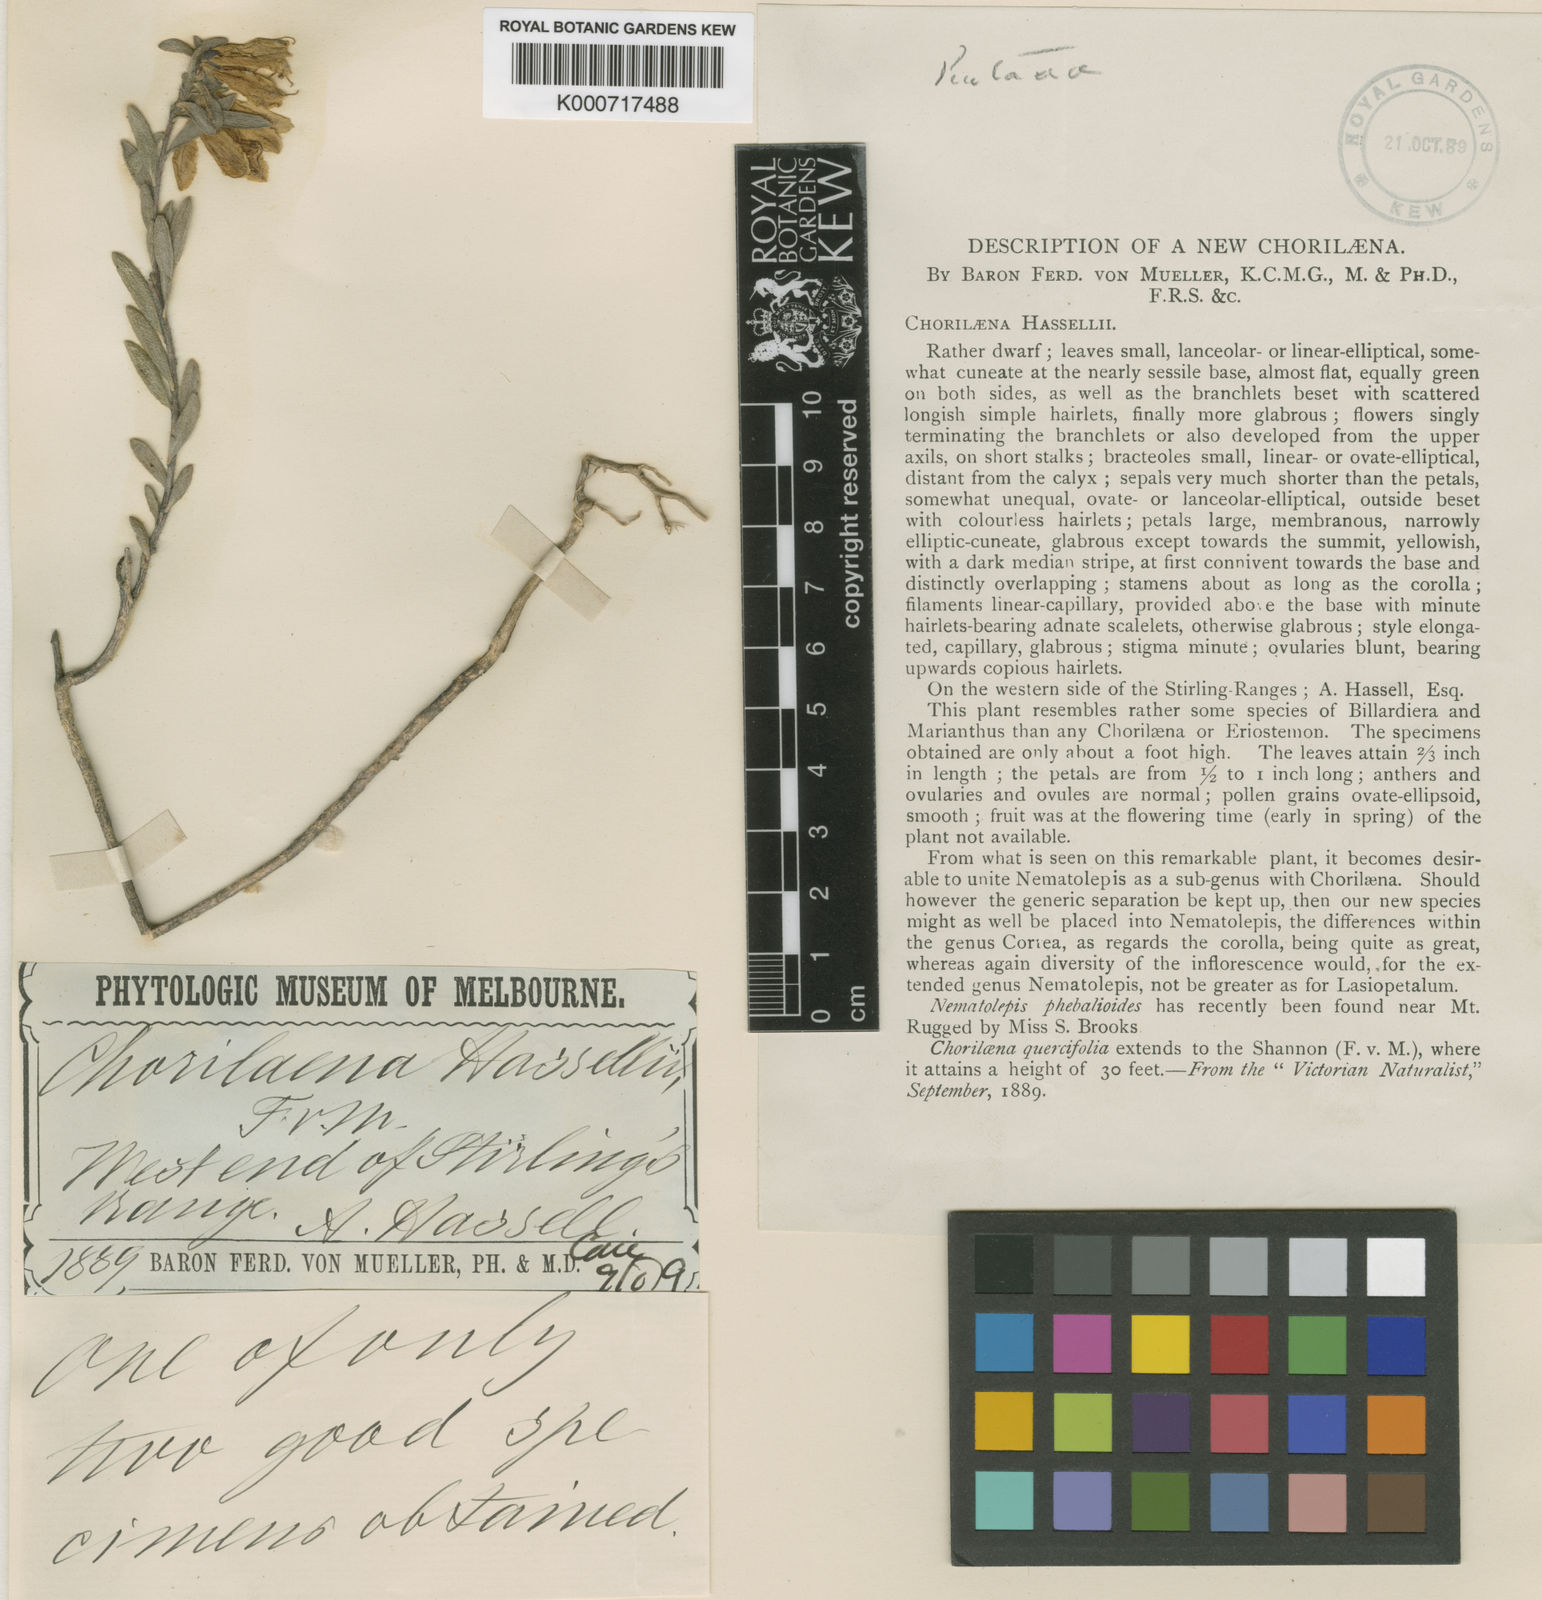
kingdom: Plantae
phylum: Tracheophyta
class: Magnoliopsida
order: Sapindales
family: Rutaceae
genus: Muiriantha
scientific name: Muiriantha hassellii
